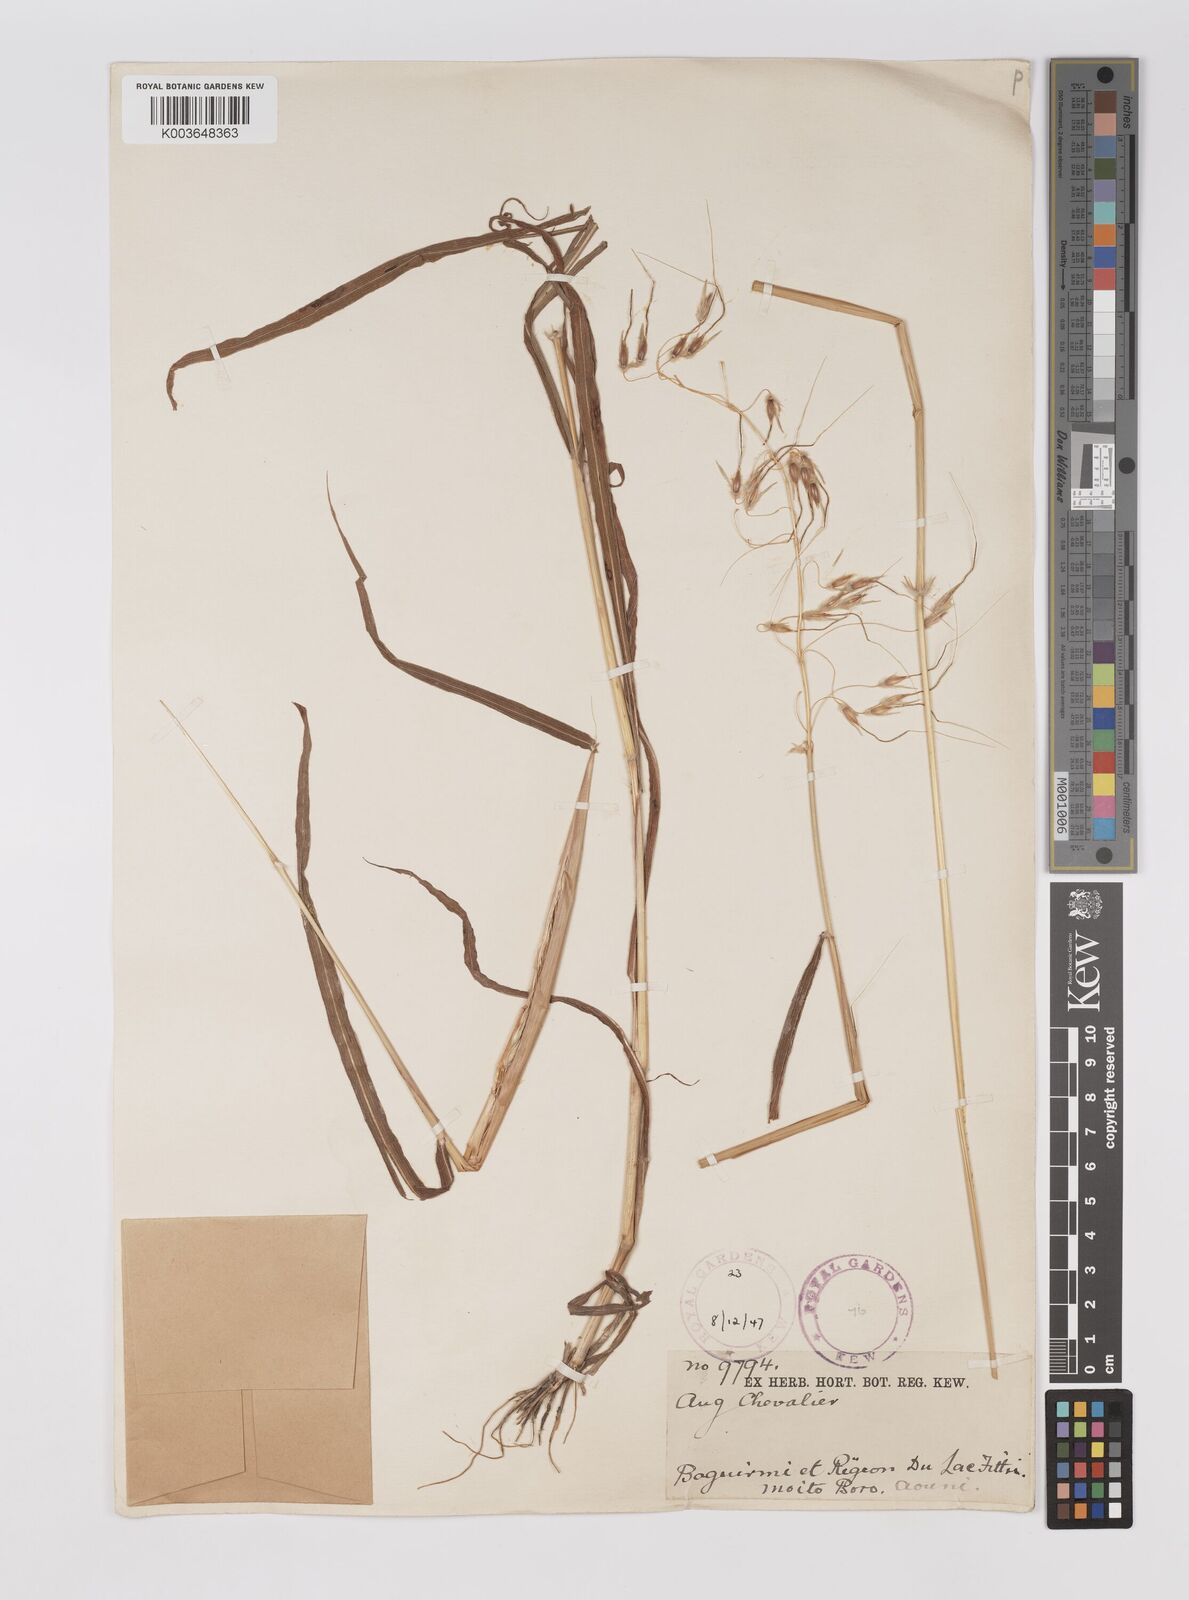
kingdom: Plantae
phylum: Tracheophyta
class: Liliopsida
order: Poales
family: Poaceae
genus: Sarga
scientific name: Sarga purpureosericea
